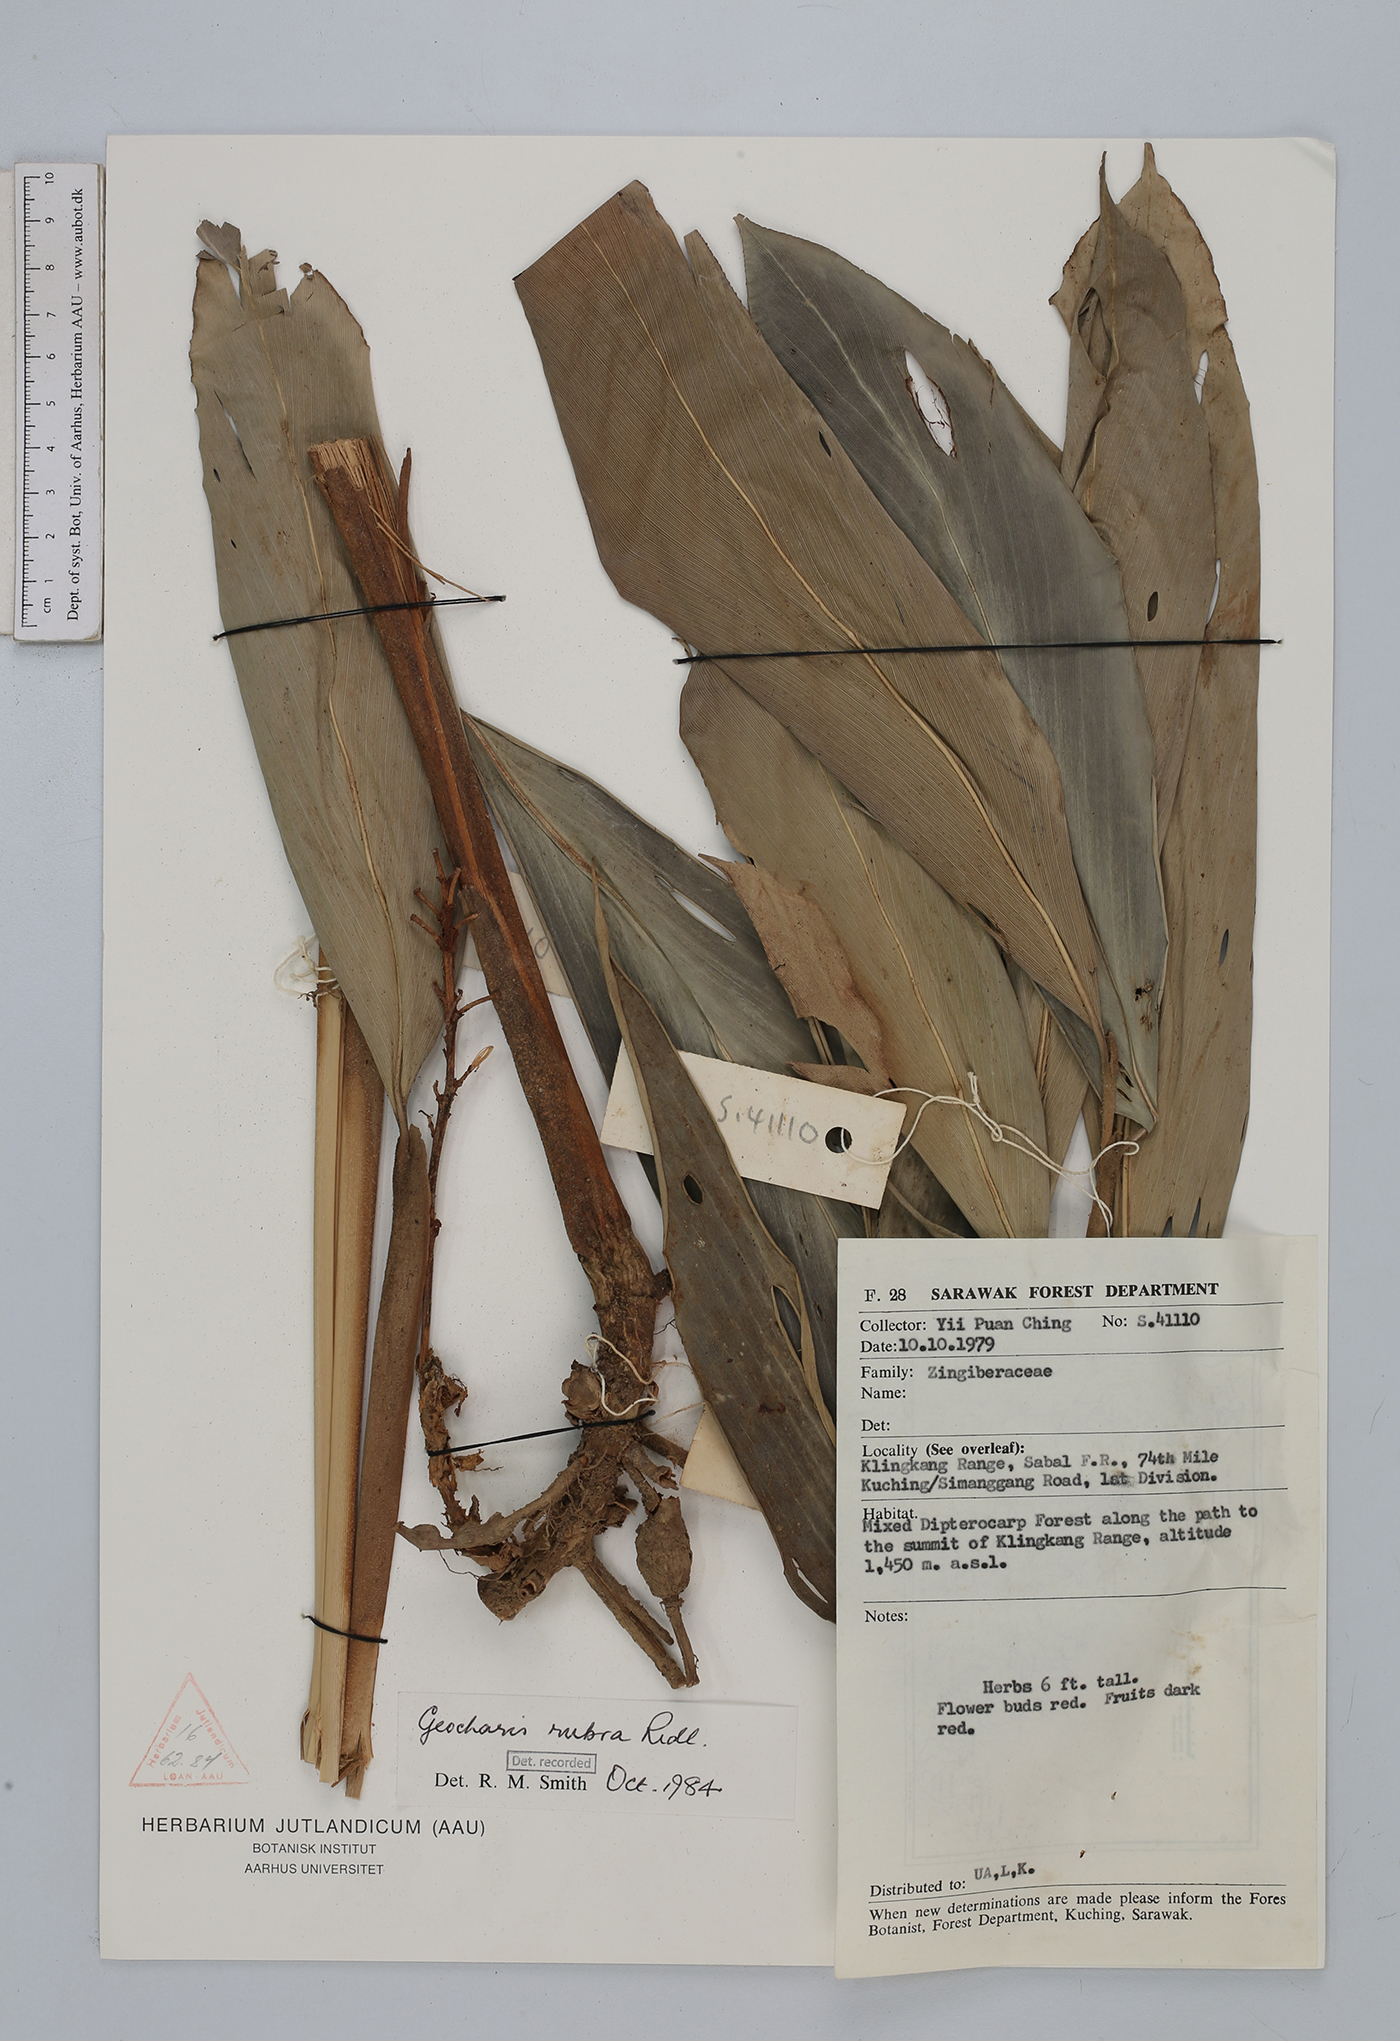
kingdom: Plantae
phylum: Tracheophyta
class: Liliopsida
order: Zingiberales
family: Zingiberaceae
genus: Geocharis
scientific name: Geocharis rubra
